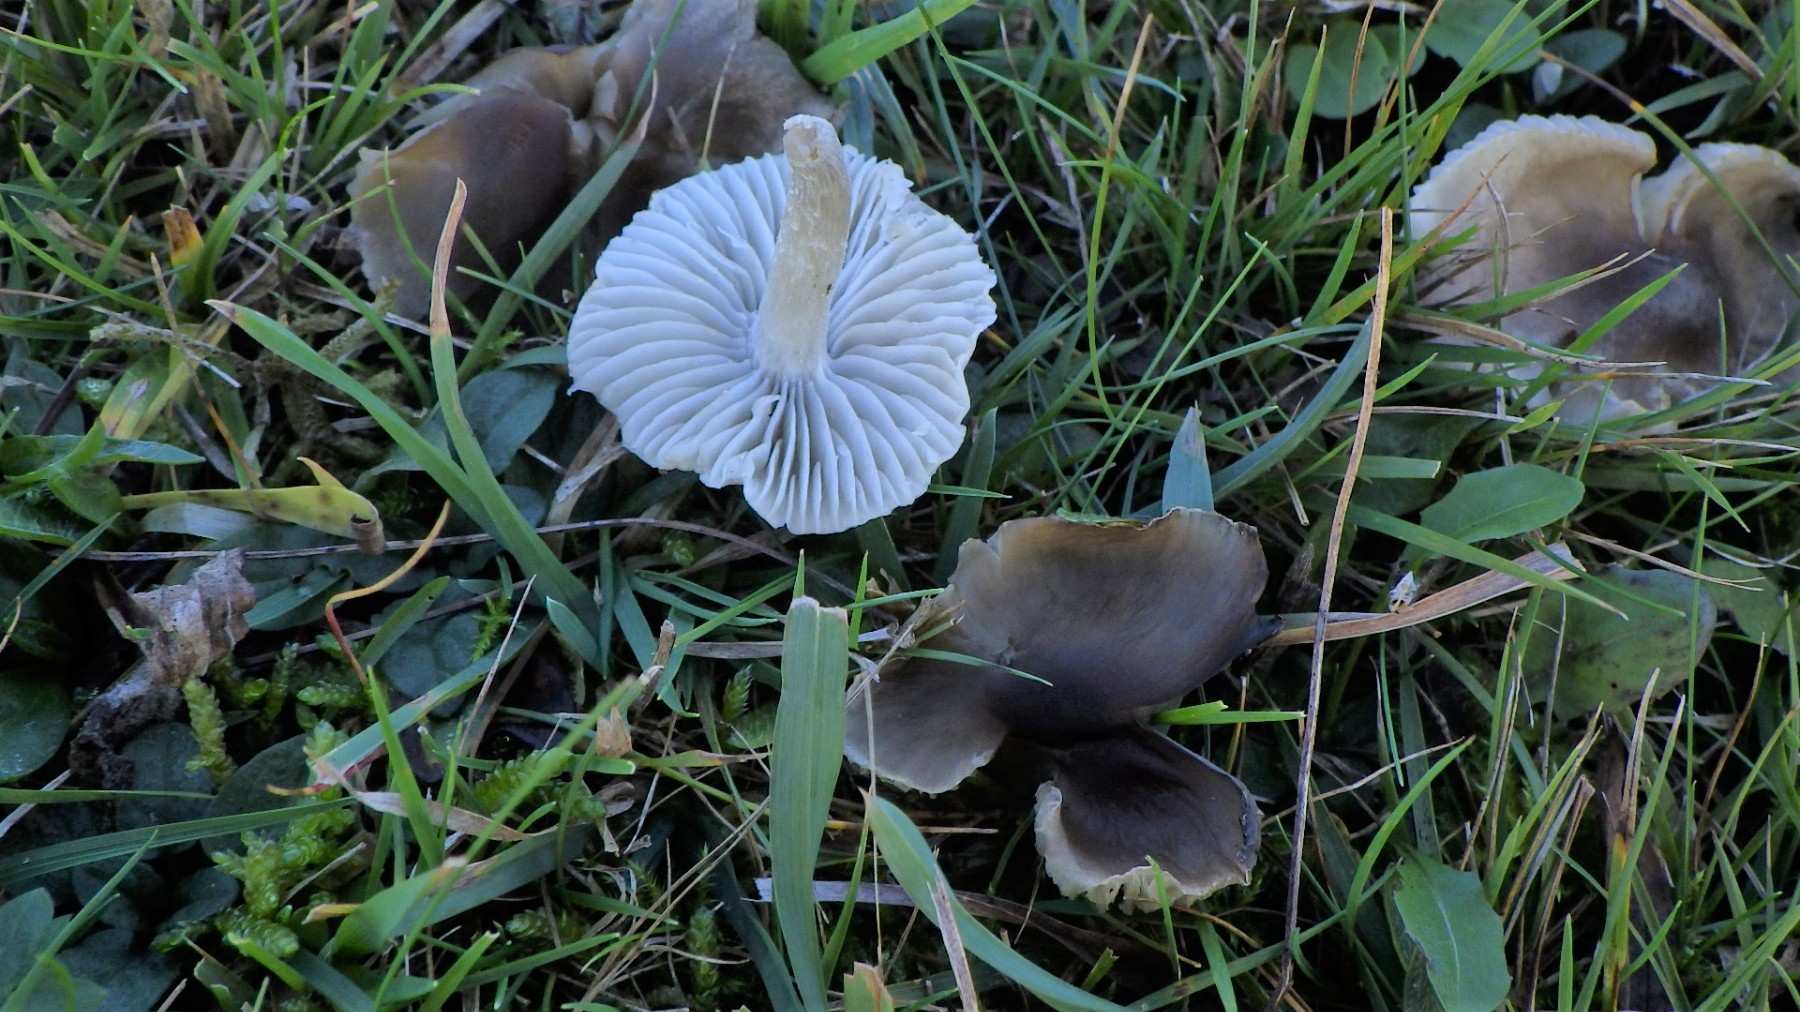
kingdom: Fungi
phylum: Basidiomycota
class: Agaricomycetes
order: Agaricales
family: Tricholomataceae
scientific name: Tricholomataceae
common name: ridderhatfamilien
